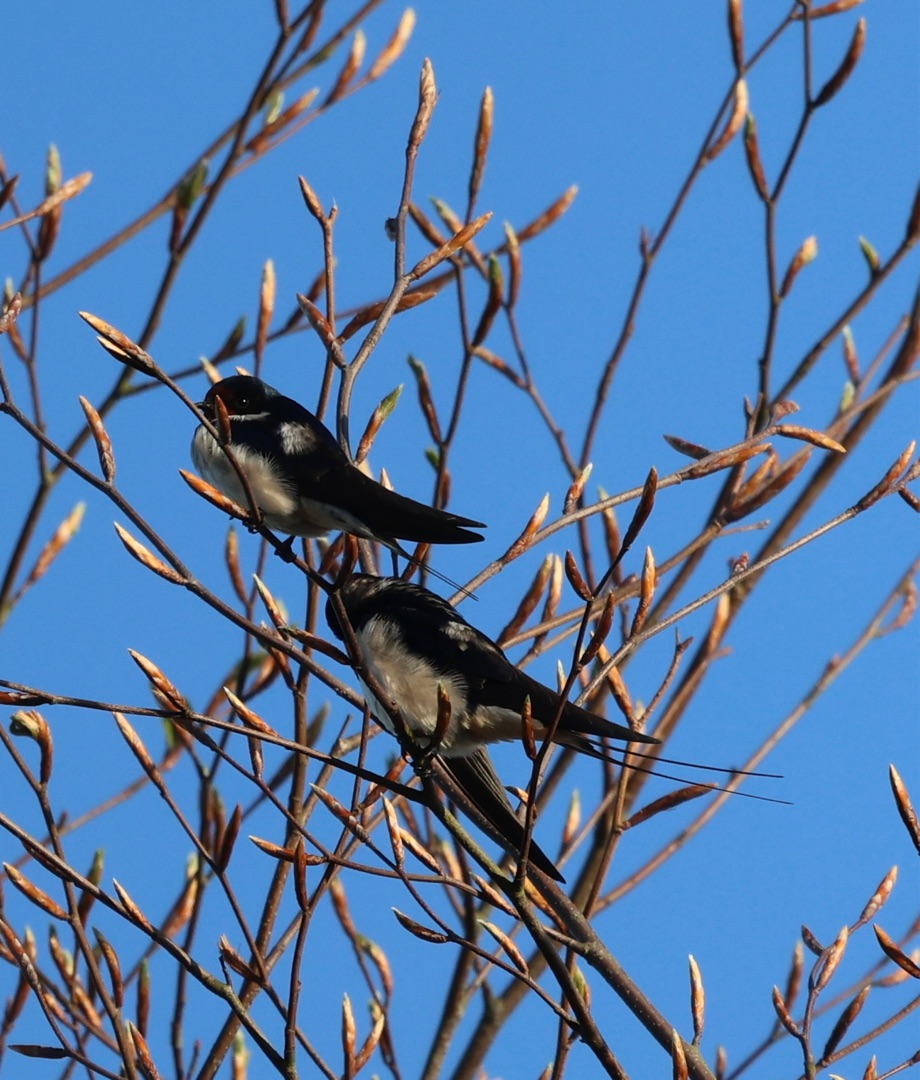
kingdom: Animalia
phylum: Chordata
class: Aves
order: Passeriformes
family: Hirundinidae
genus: Hirundo
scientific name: Hirundo rustica
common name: Landsvale
